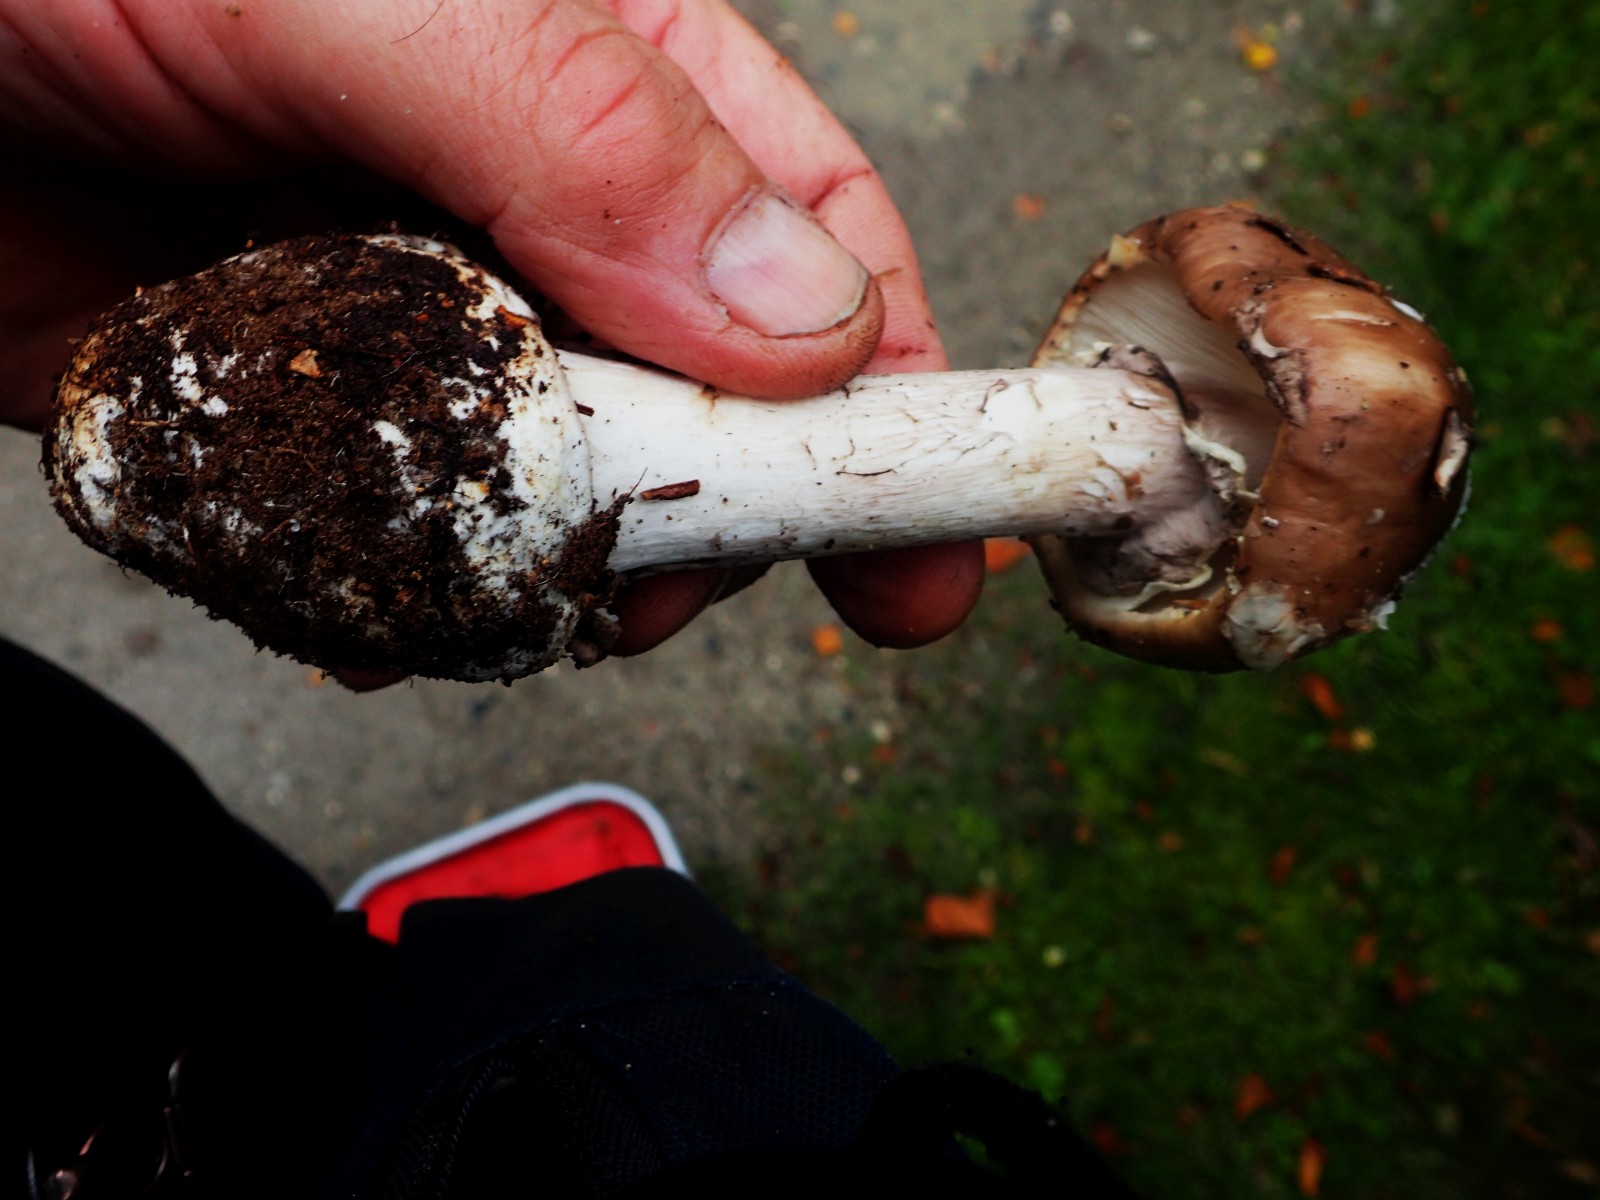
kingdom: Fungi
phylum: Basidiomycota
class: Agaricomycetes
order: Agaricales
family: Amanitaceae
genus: Amanita
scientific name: Amanita porphyria
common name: porfyr-fluesvamp
